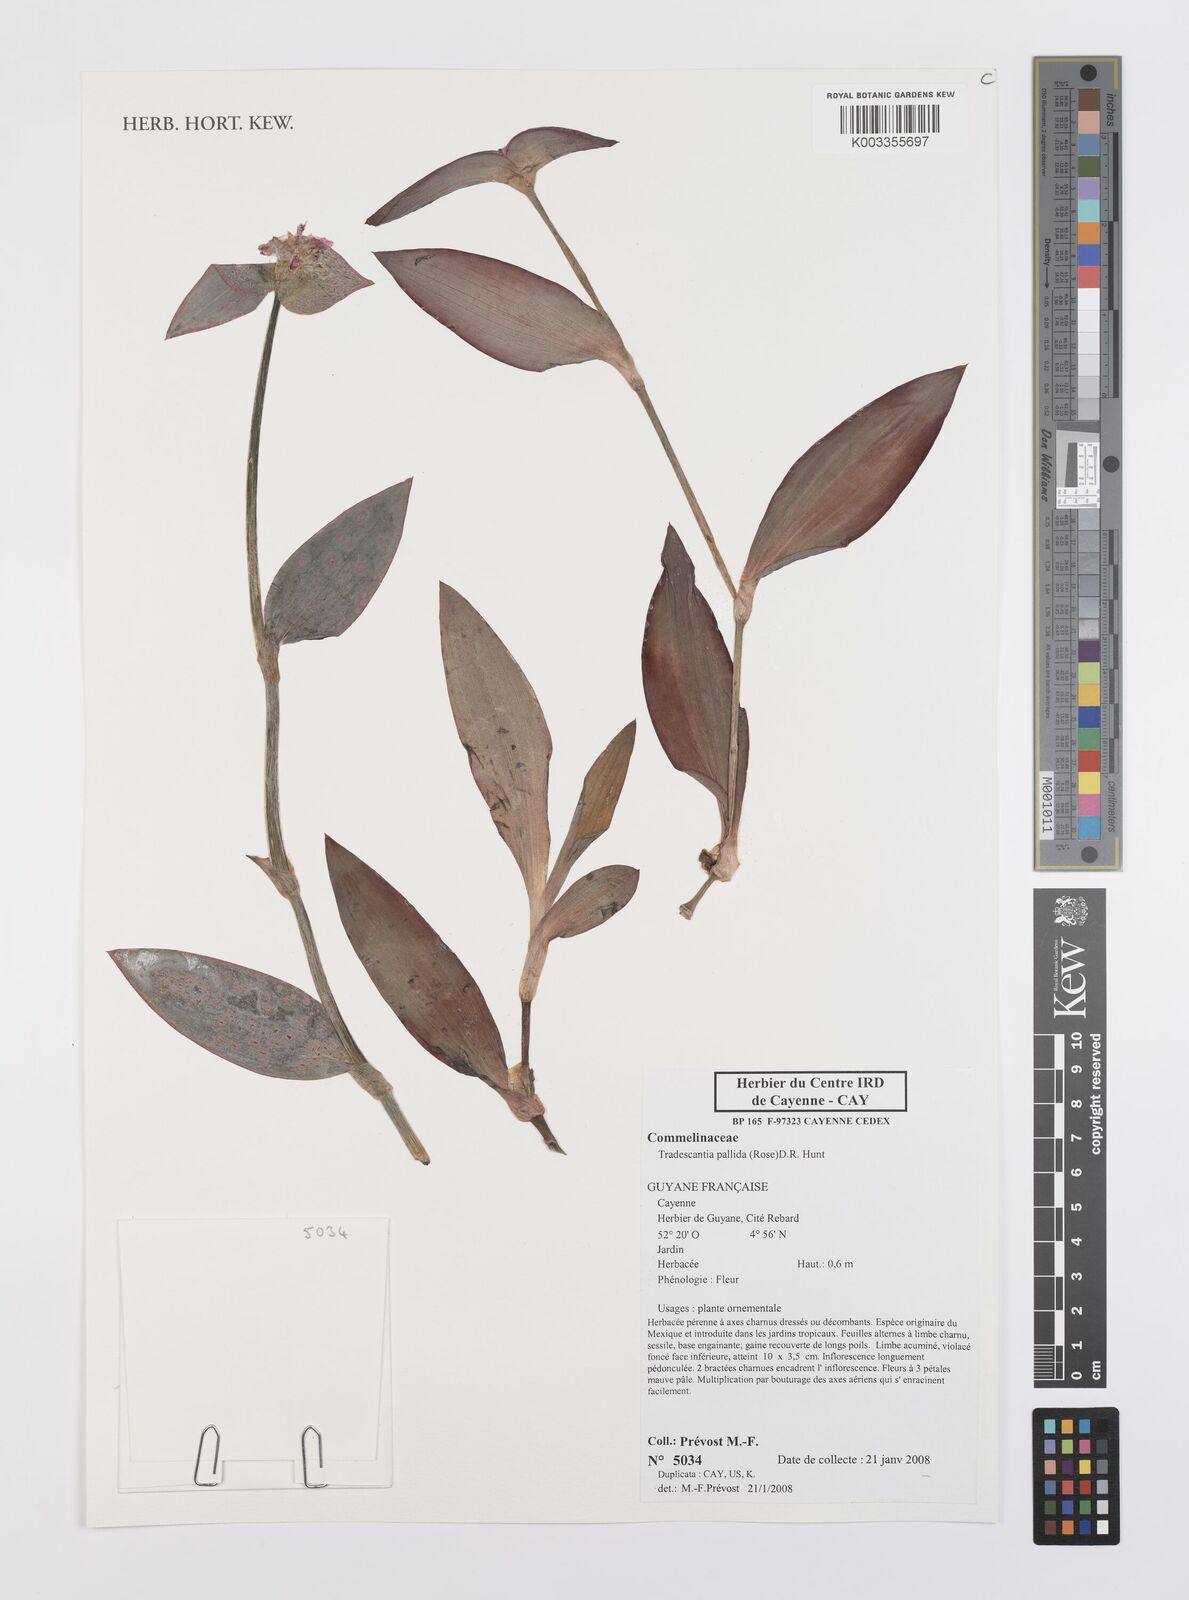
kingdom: Plantae
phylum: Tracheophyta
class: Liliopsida
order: Commelinales
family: Commelinaceae
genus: Tradescantia
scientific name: Tradescantia pallida
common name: Purpleheart
